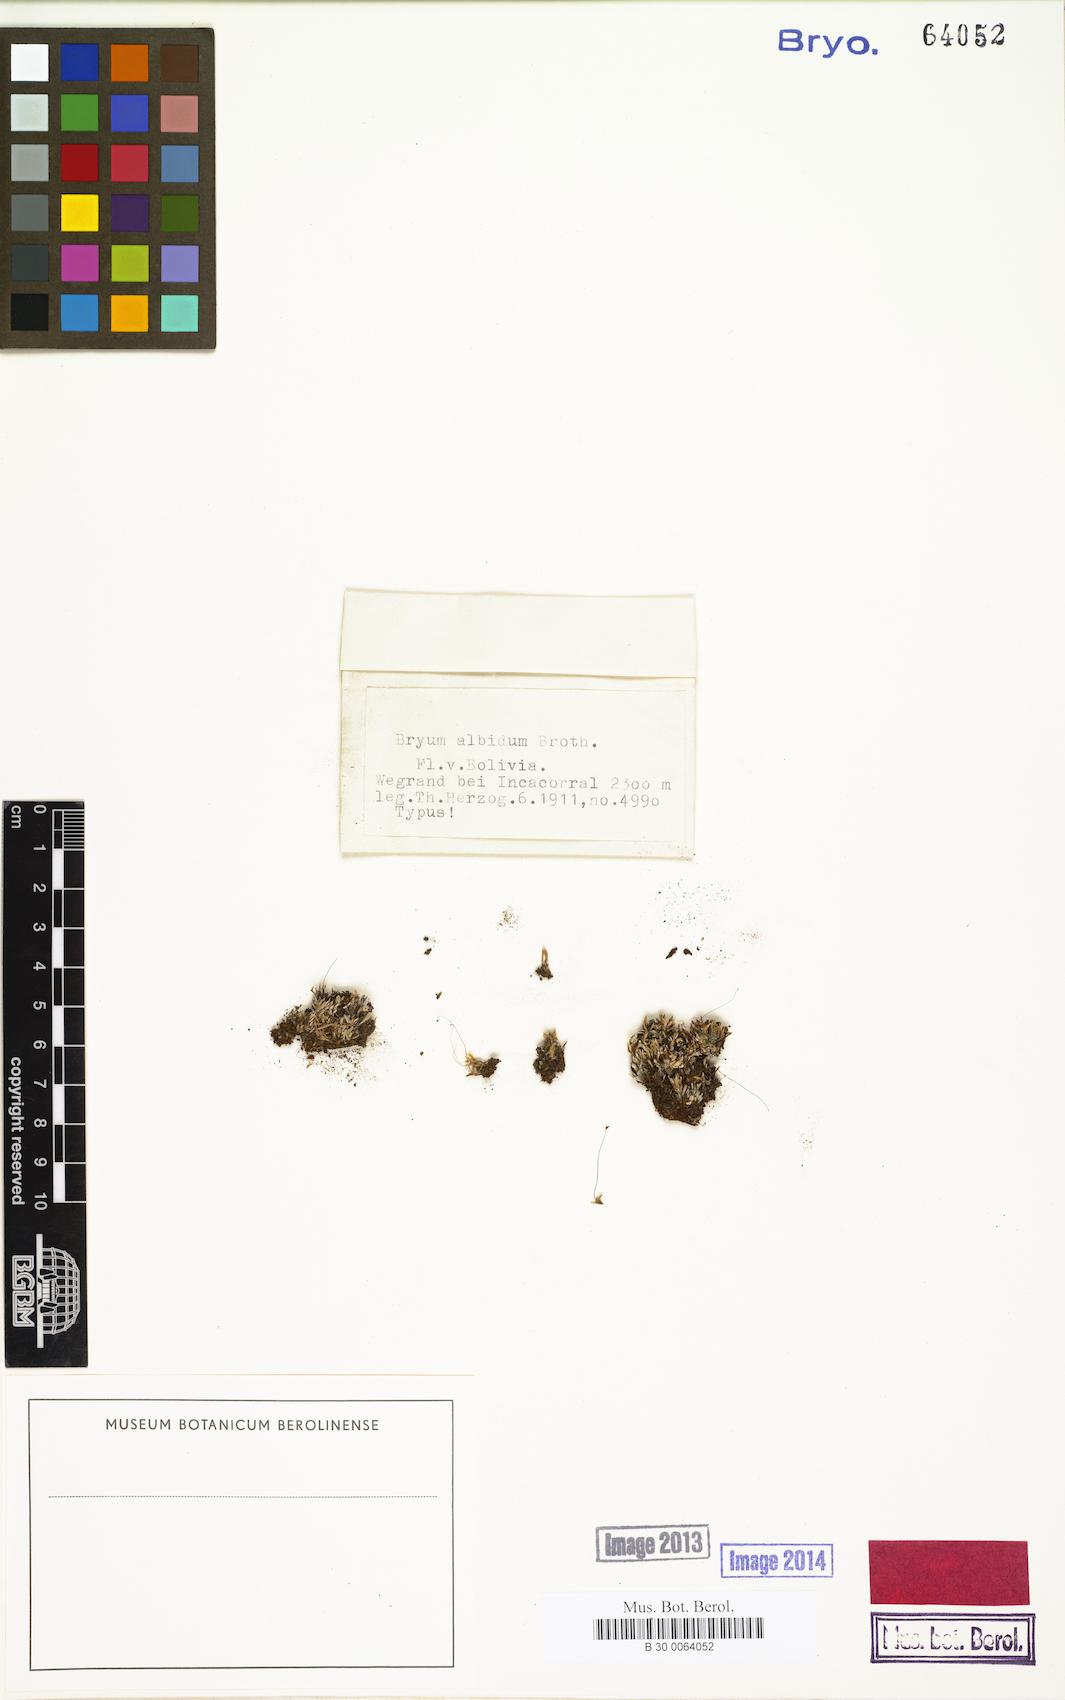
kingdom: Plantae
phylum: Bryophyta
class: Bryopsida
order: Bryales
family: Bryaceae
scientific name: Bryaceae
